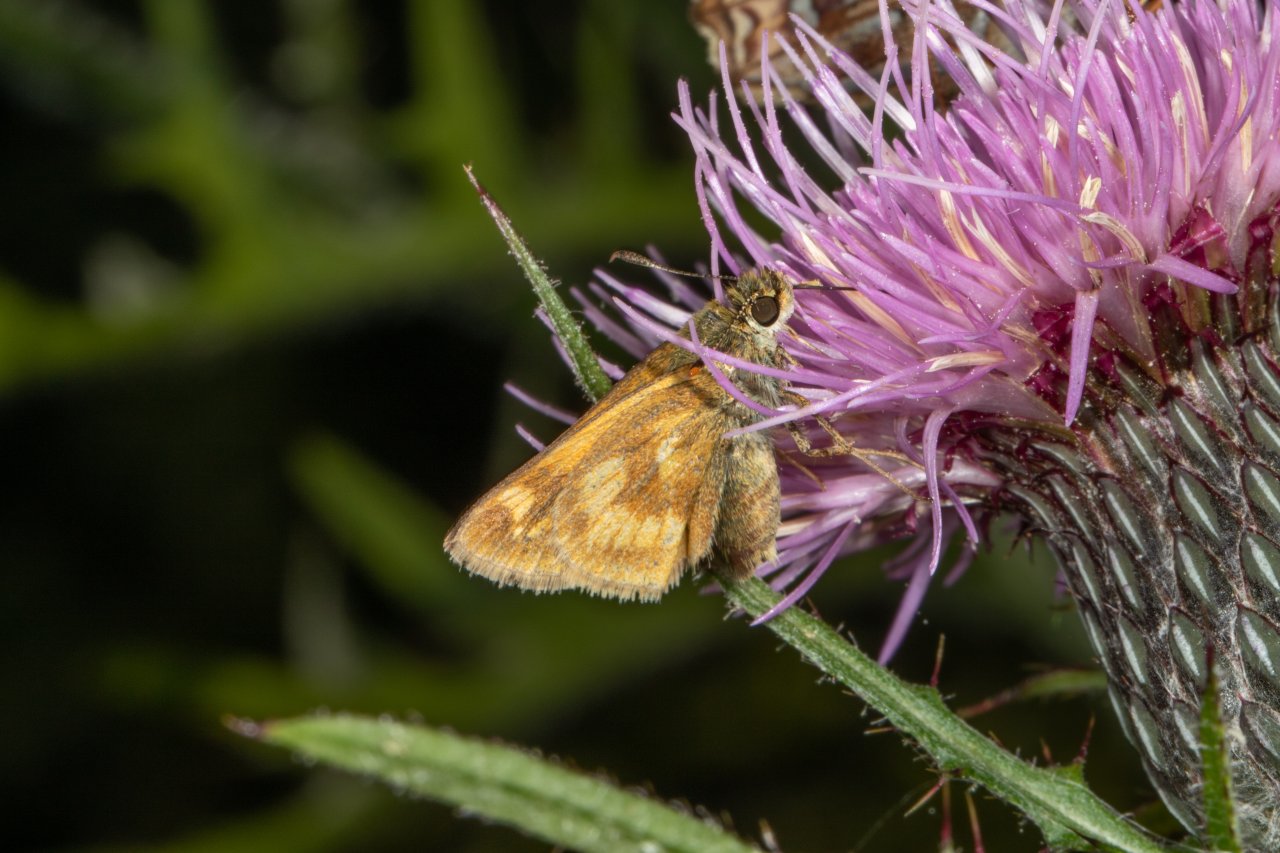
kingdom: Animalia
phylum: Arthropoda
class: Insecta
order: Lepidoptera
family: Hesperiidae
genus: Polites
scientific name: Polites
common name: Long Dash Skipper
